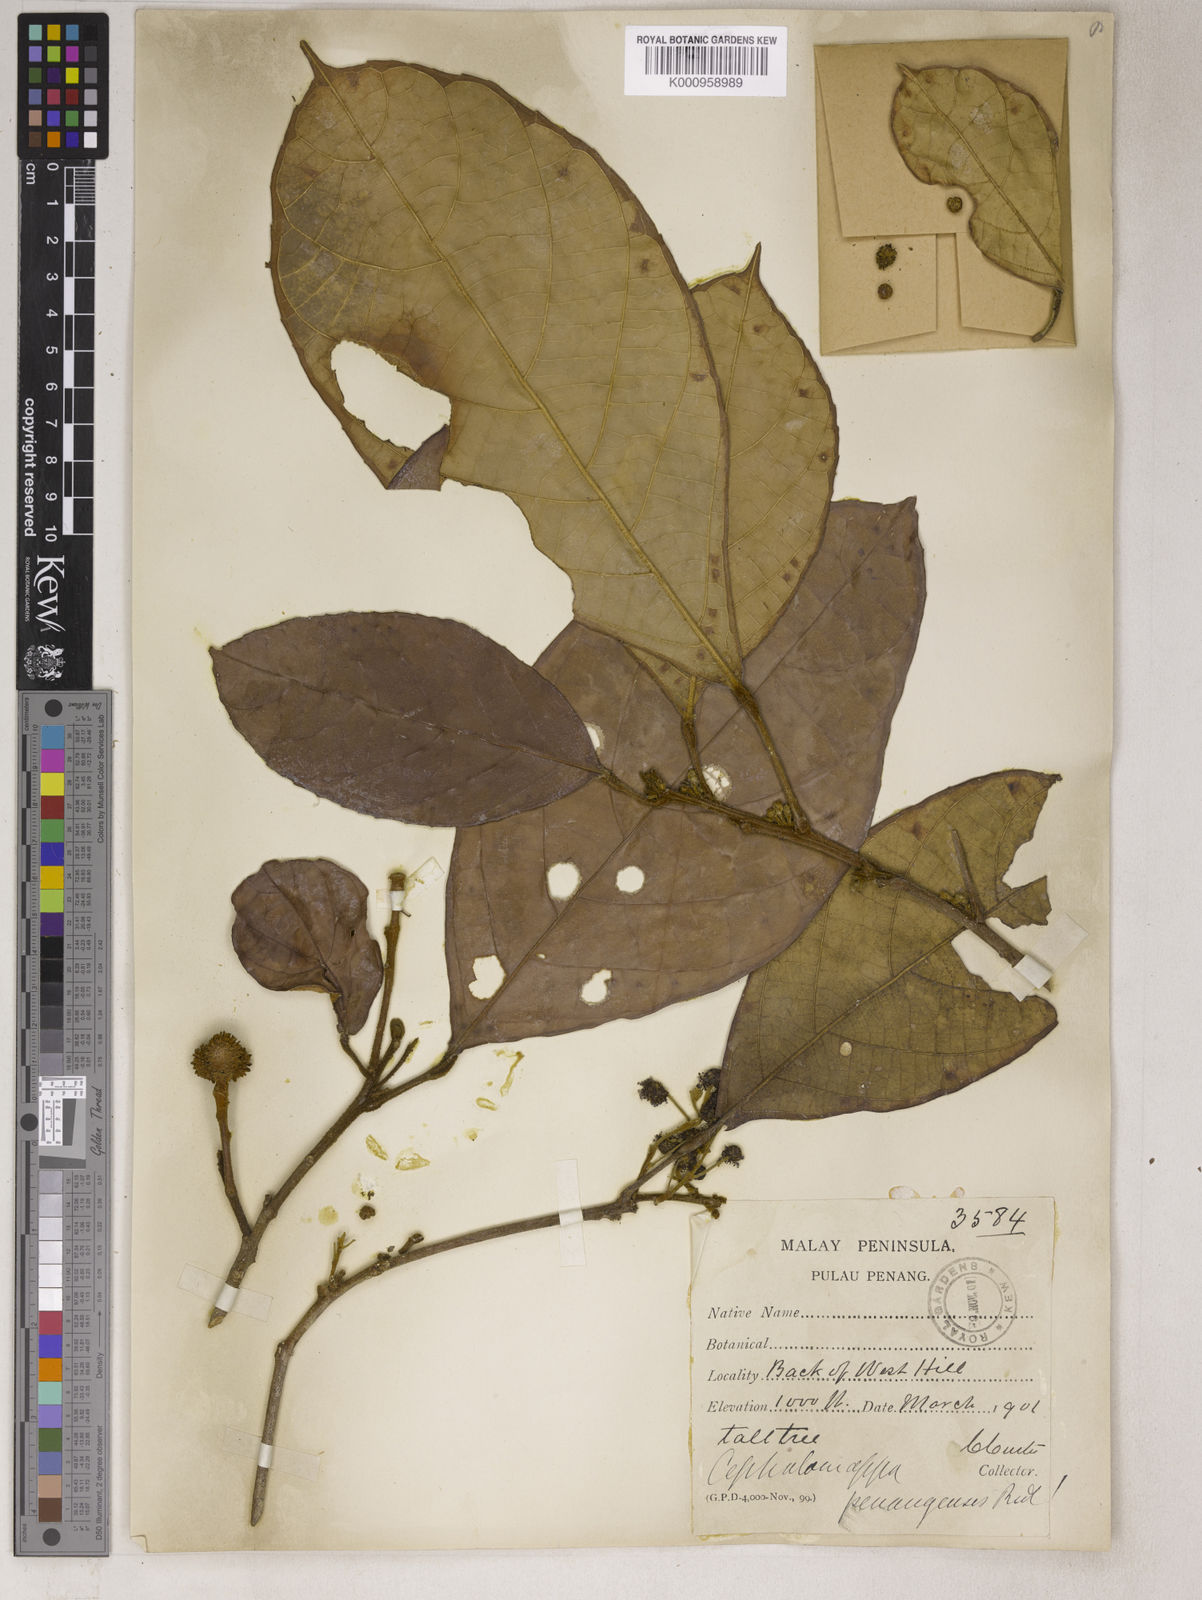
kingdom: Plantae
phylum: Tracheophyta
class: Magnoliopsida
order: Malpighiales
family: Euphorbiaceae
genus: Cephalomappa
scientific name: Cephalomappa penangensis
